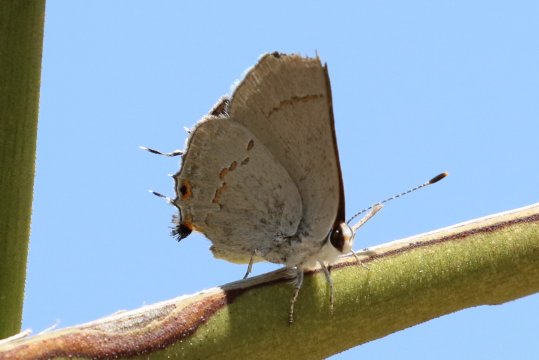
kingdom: Animalia
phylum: Arthropoda
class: Insecta
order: Lepidoptera
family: Lycaenidae
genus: Strymon
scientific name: Strymon
